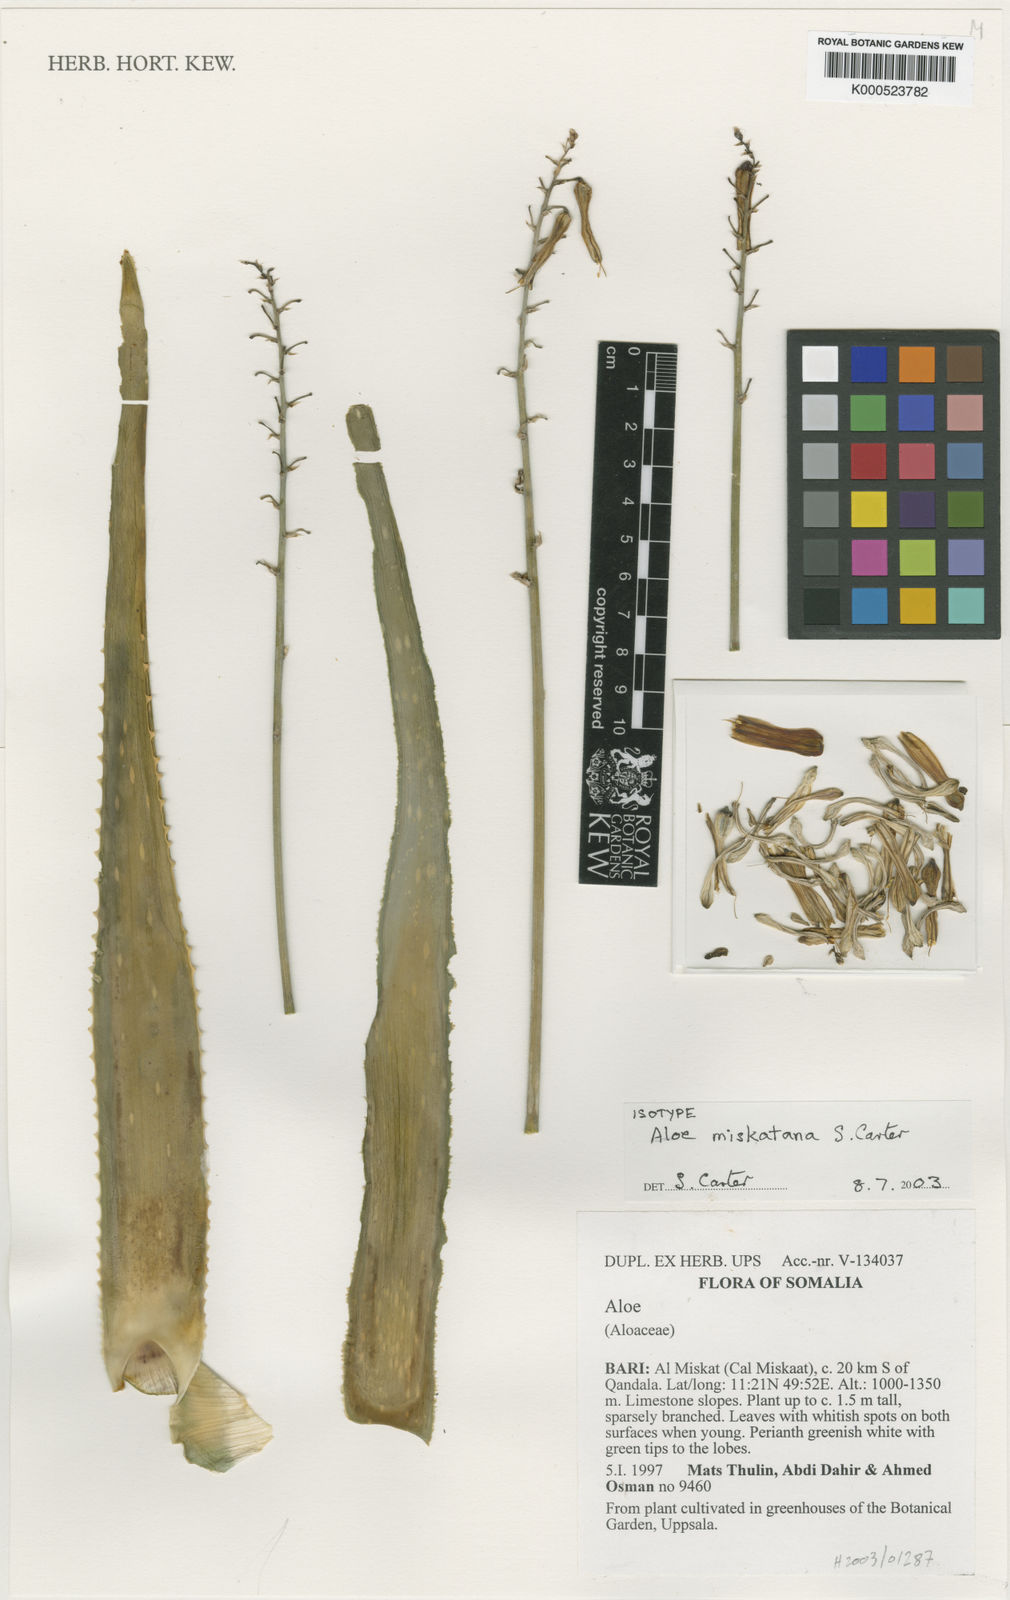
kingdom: Plantae
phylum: Tracheophyta
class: Liliopsida
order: Asparagales
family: Asphodelaceae
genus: Aloe
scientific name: Aloe miskatana
